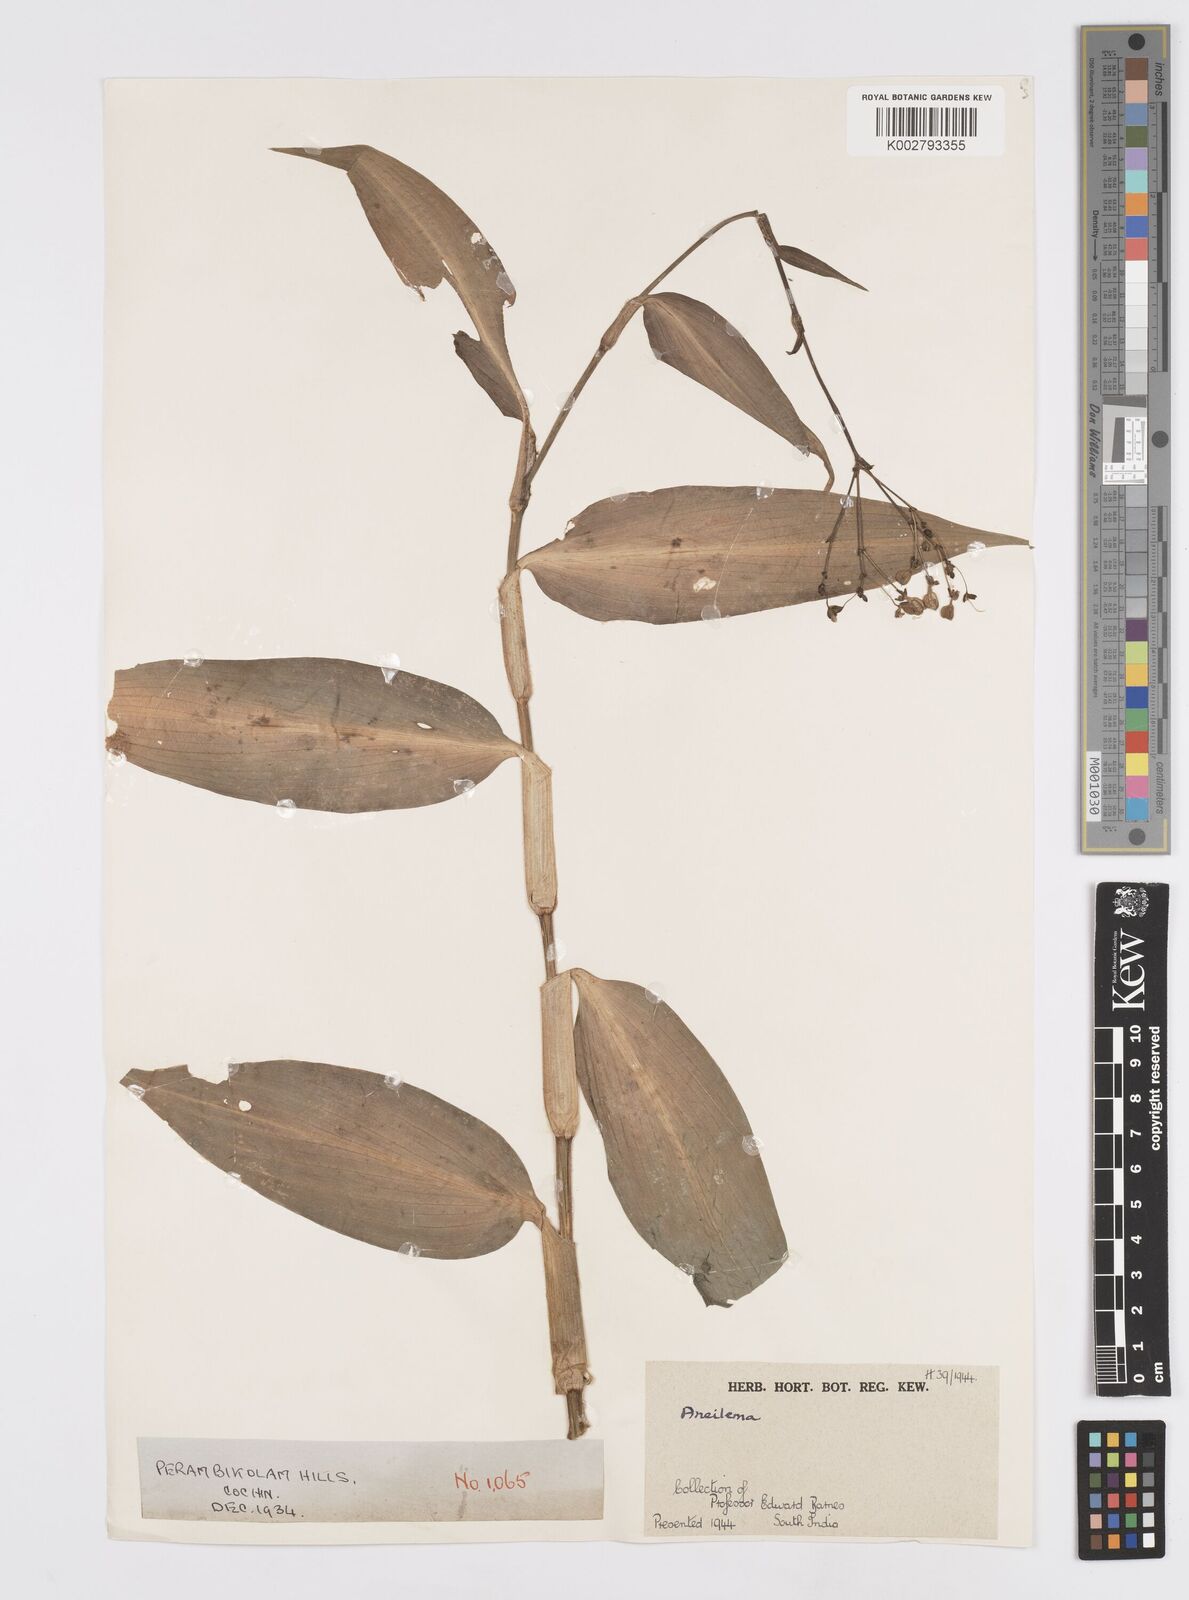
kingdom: Plantae
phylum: Tracheophyta
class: Liliopsida
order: Commelinales
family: Commelinaceae
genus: Murdannia
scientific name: Murdannia
